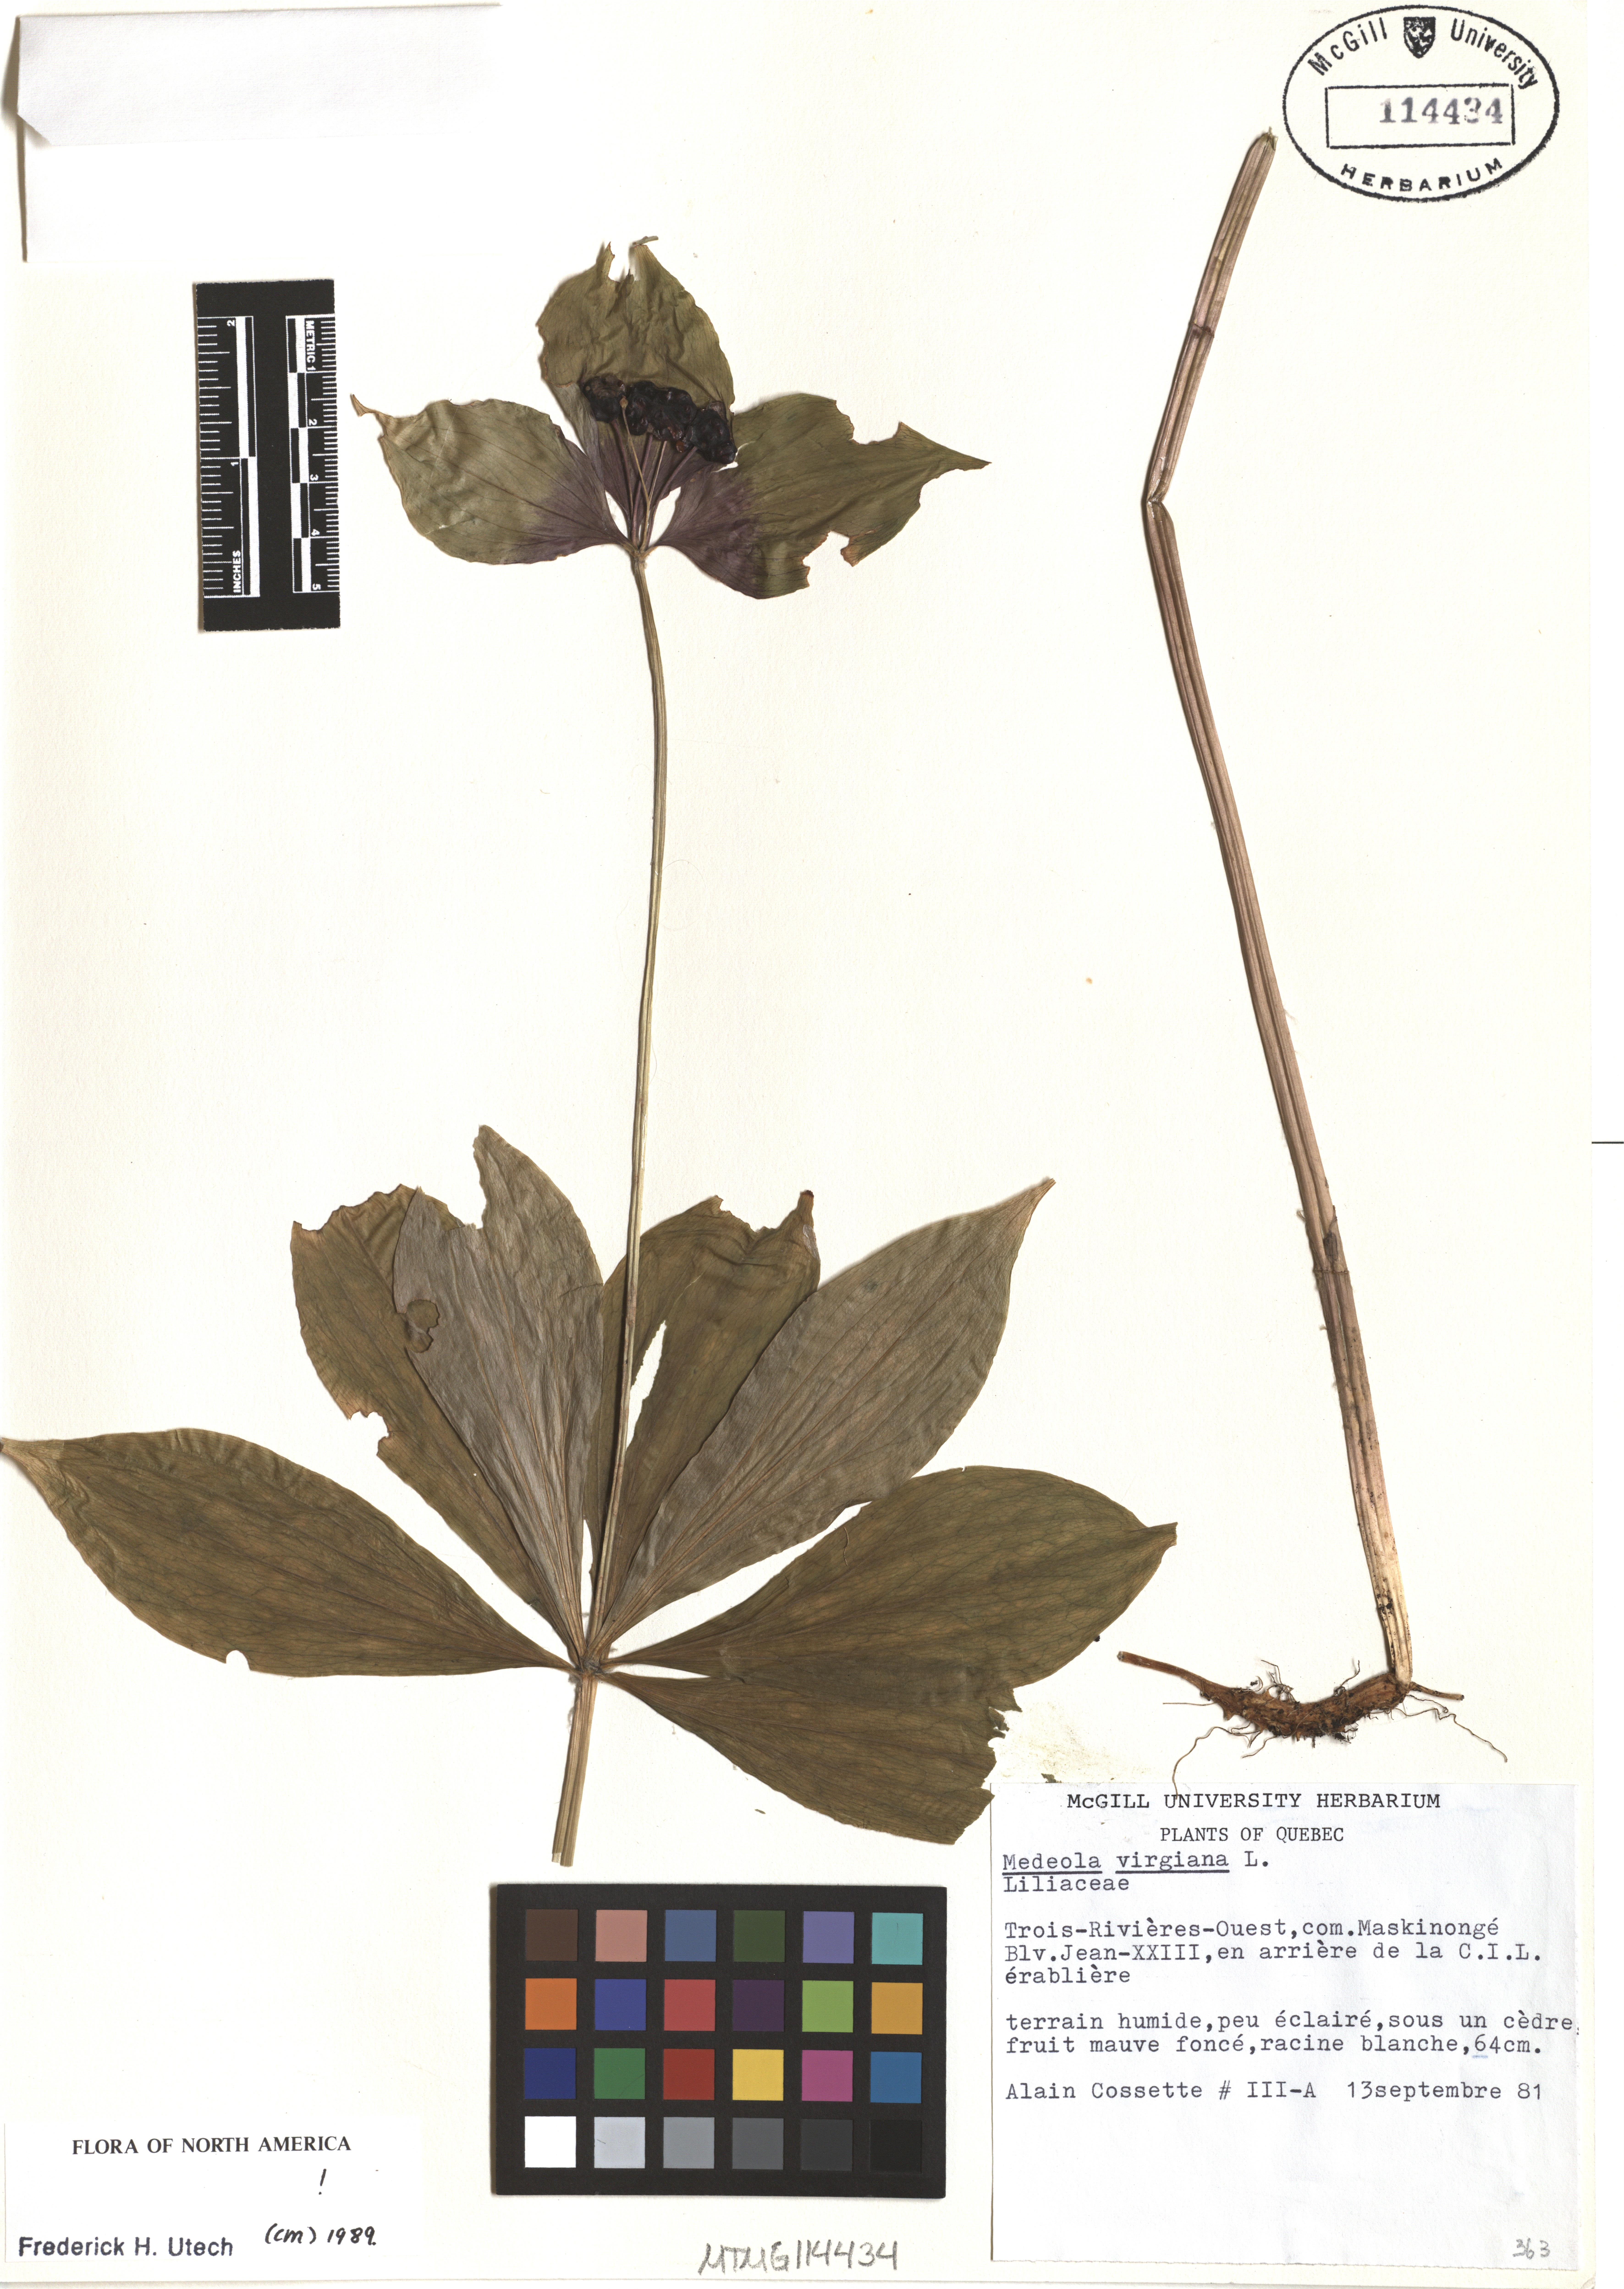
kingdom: Plantae
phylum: Tracheophyta
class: Liliopsida
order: Liliales
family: Liliaceae
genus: Medeola
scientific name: Medeola virginiana
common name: Indian cucumber-root
